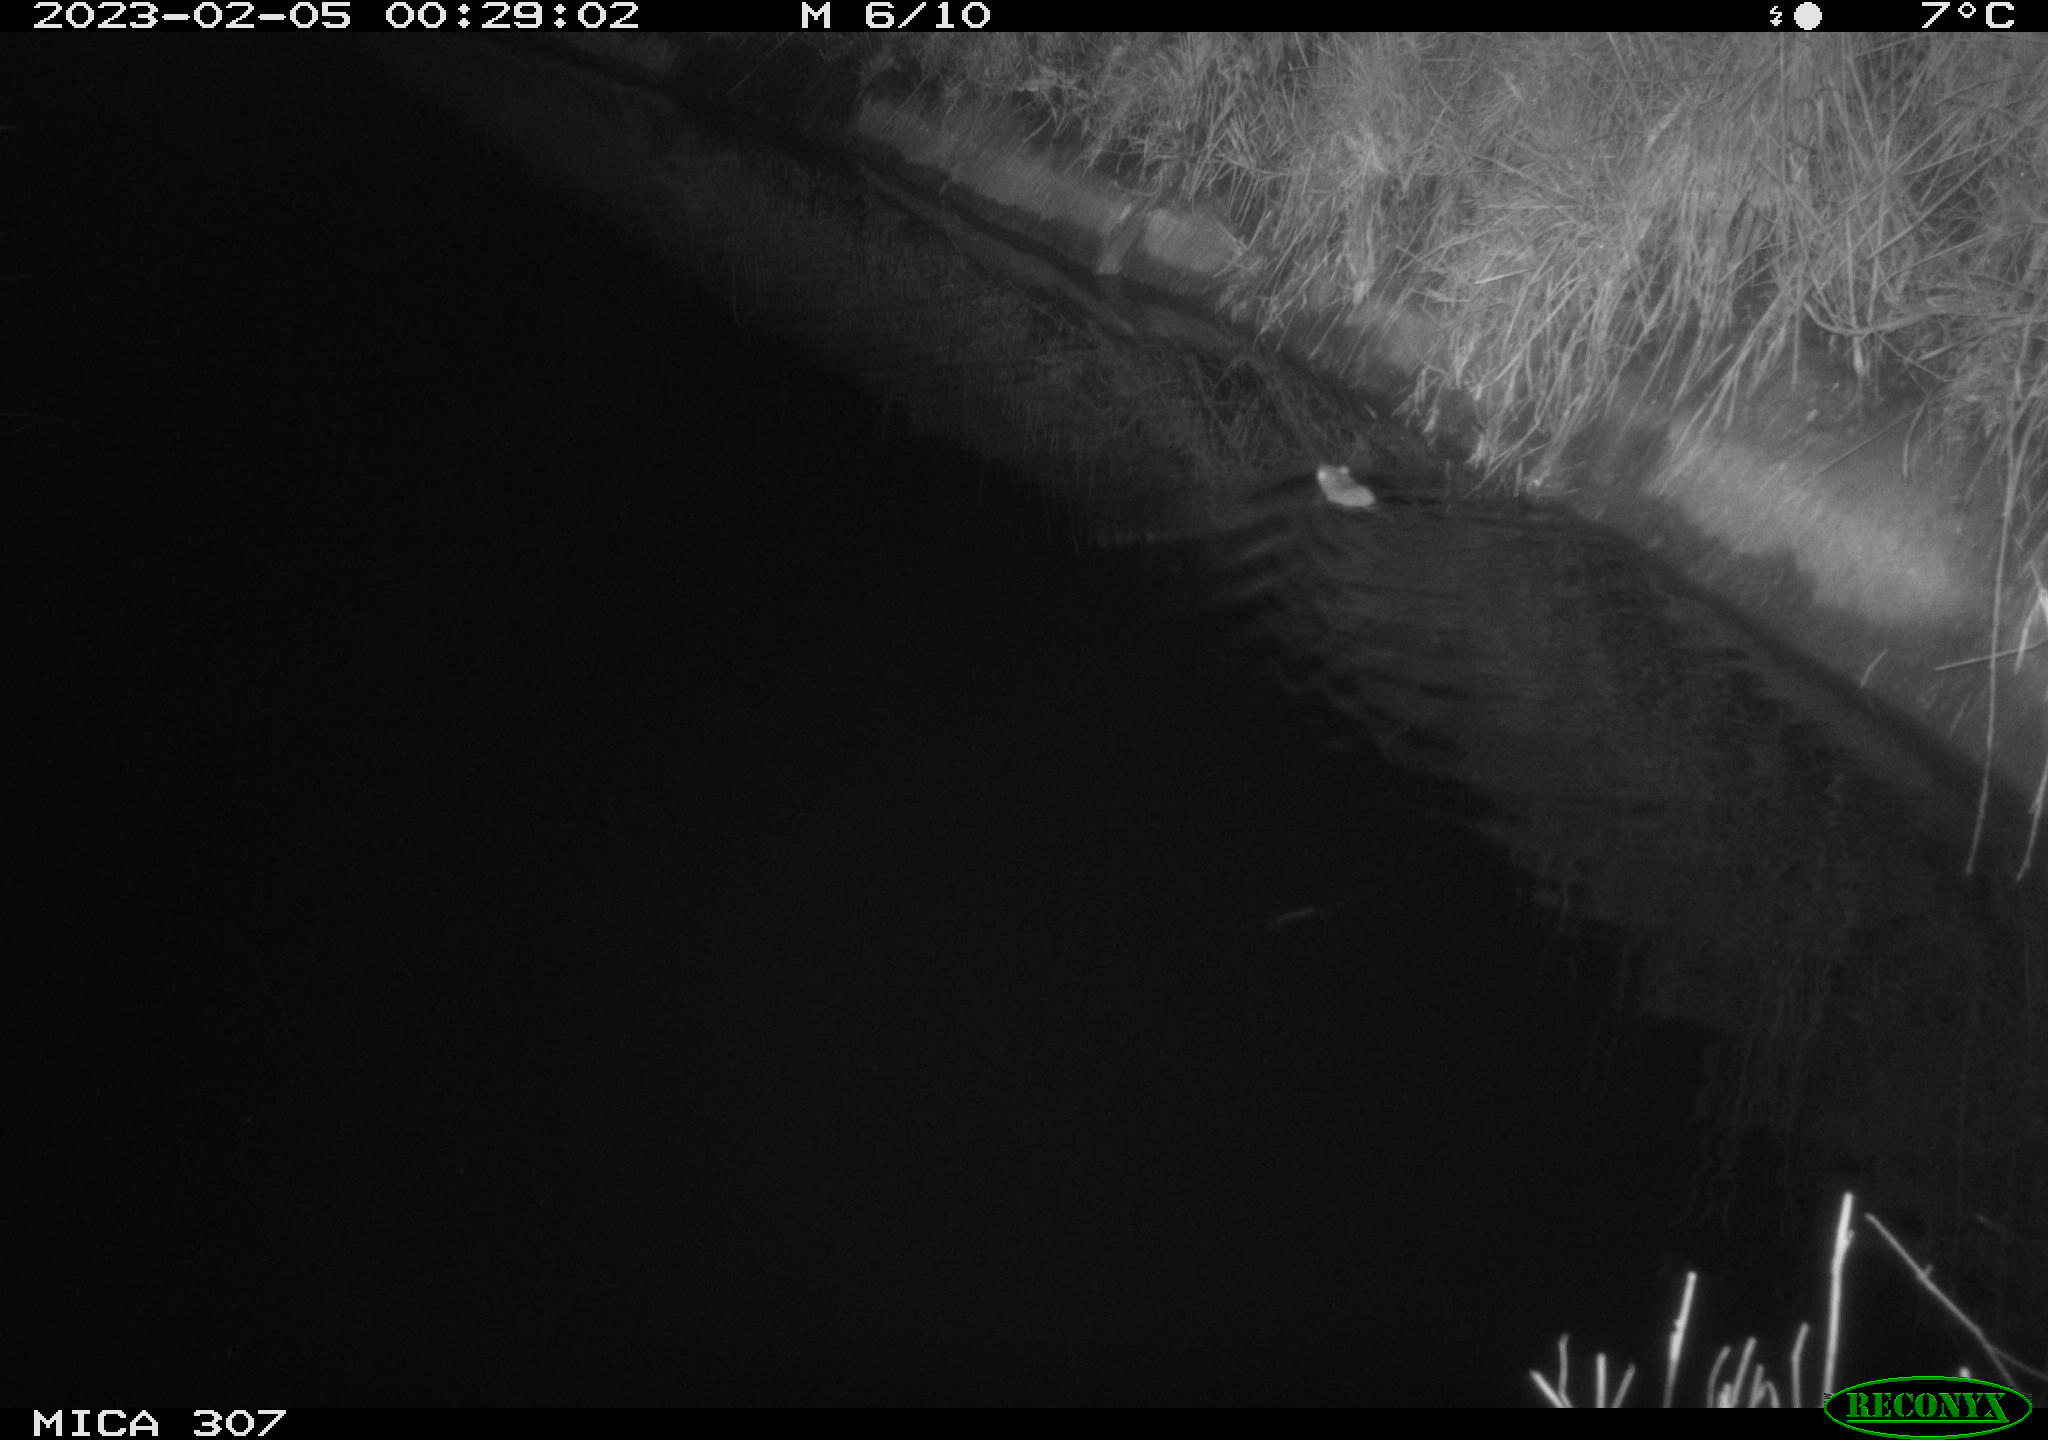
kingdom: Animalia
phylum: Chordata
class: Mammalia
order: Rodentia
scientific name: Rodentia
